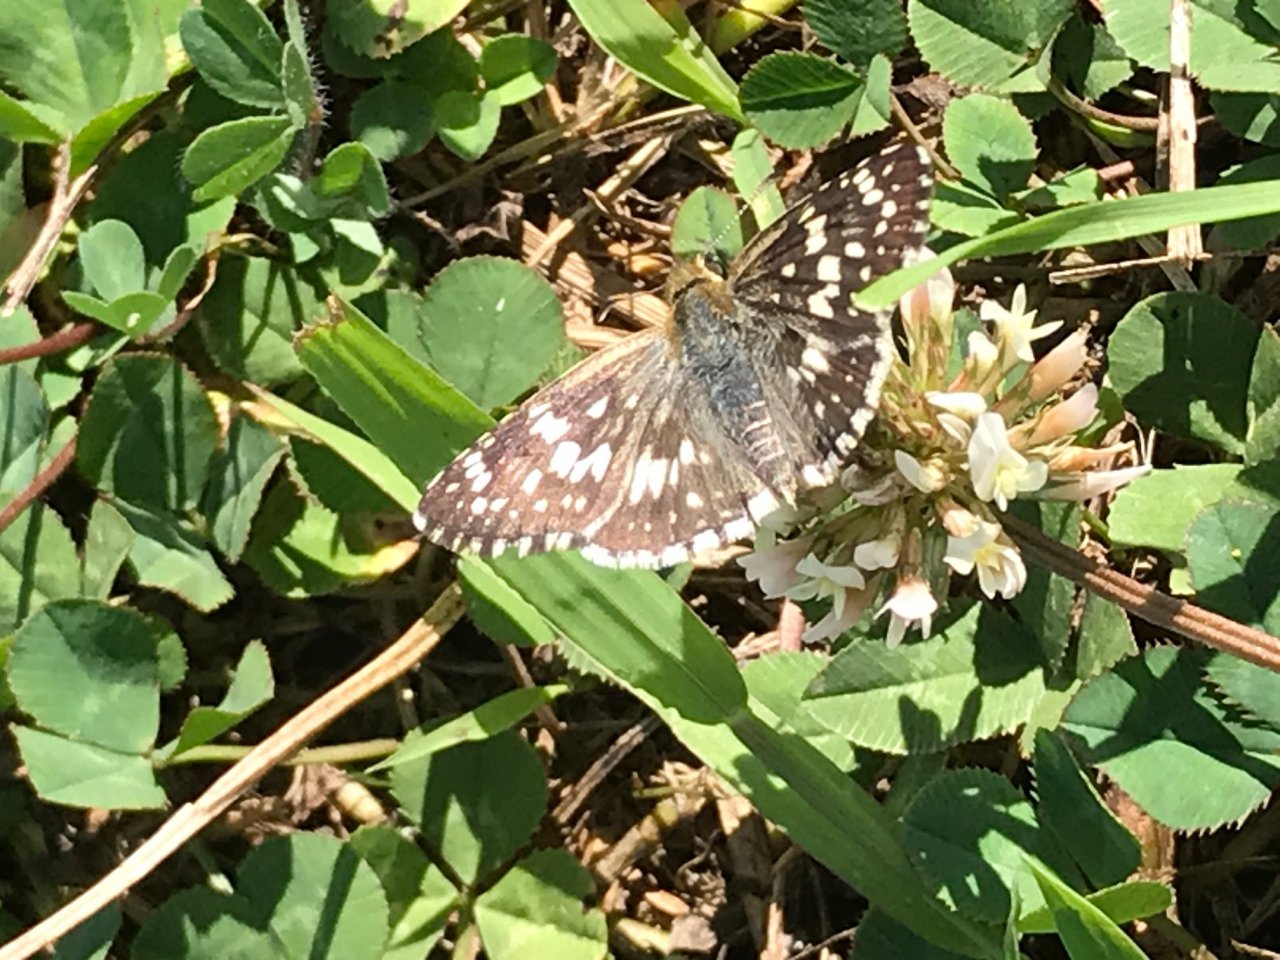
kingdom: Animalia
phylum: Arthropoda
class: Insecta
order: Lepidoptera
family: Hesperiidae
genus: Pyrgus
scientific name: Pyrgus communis
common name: Common Checkered-Skipper
